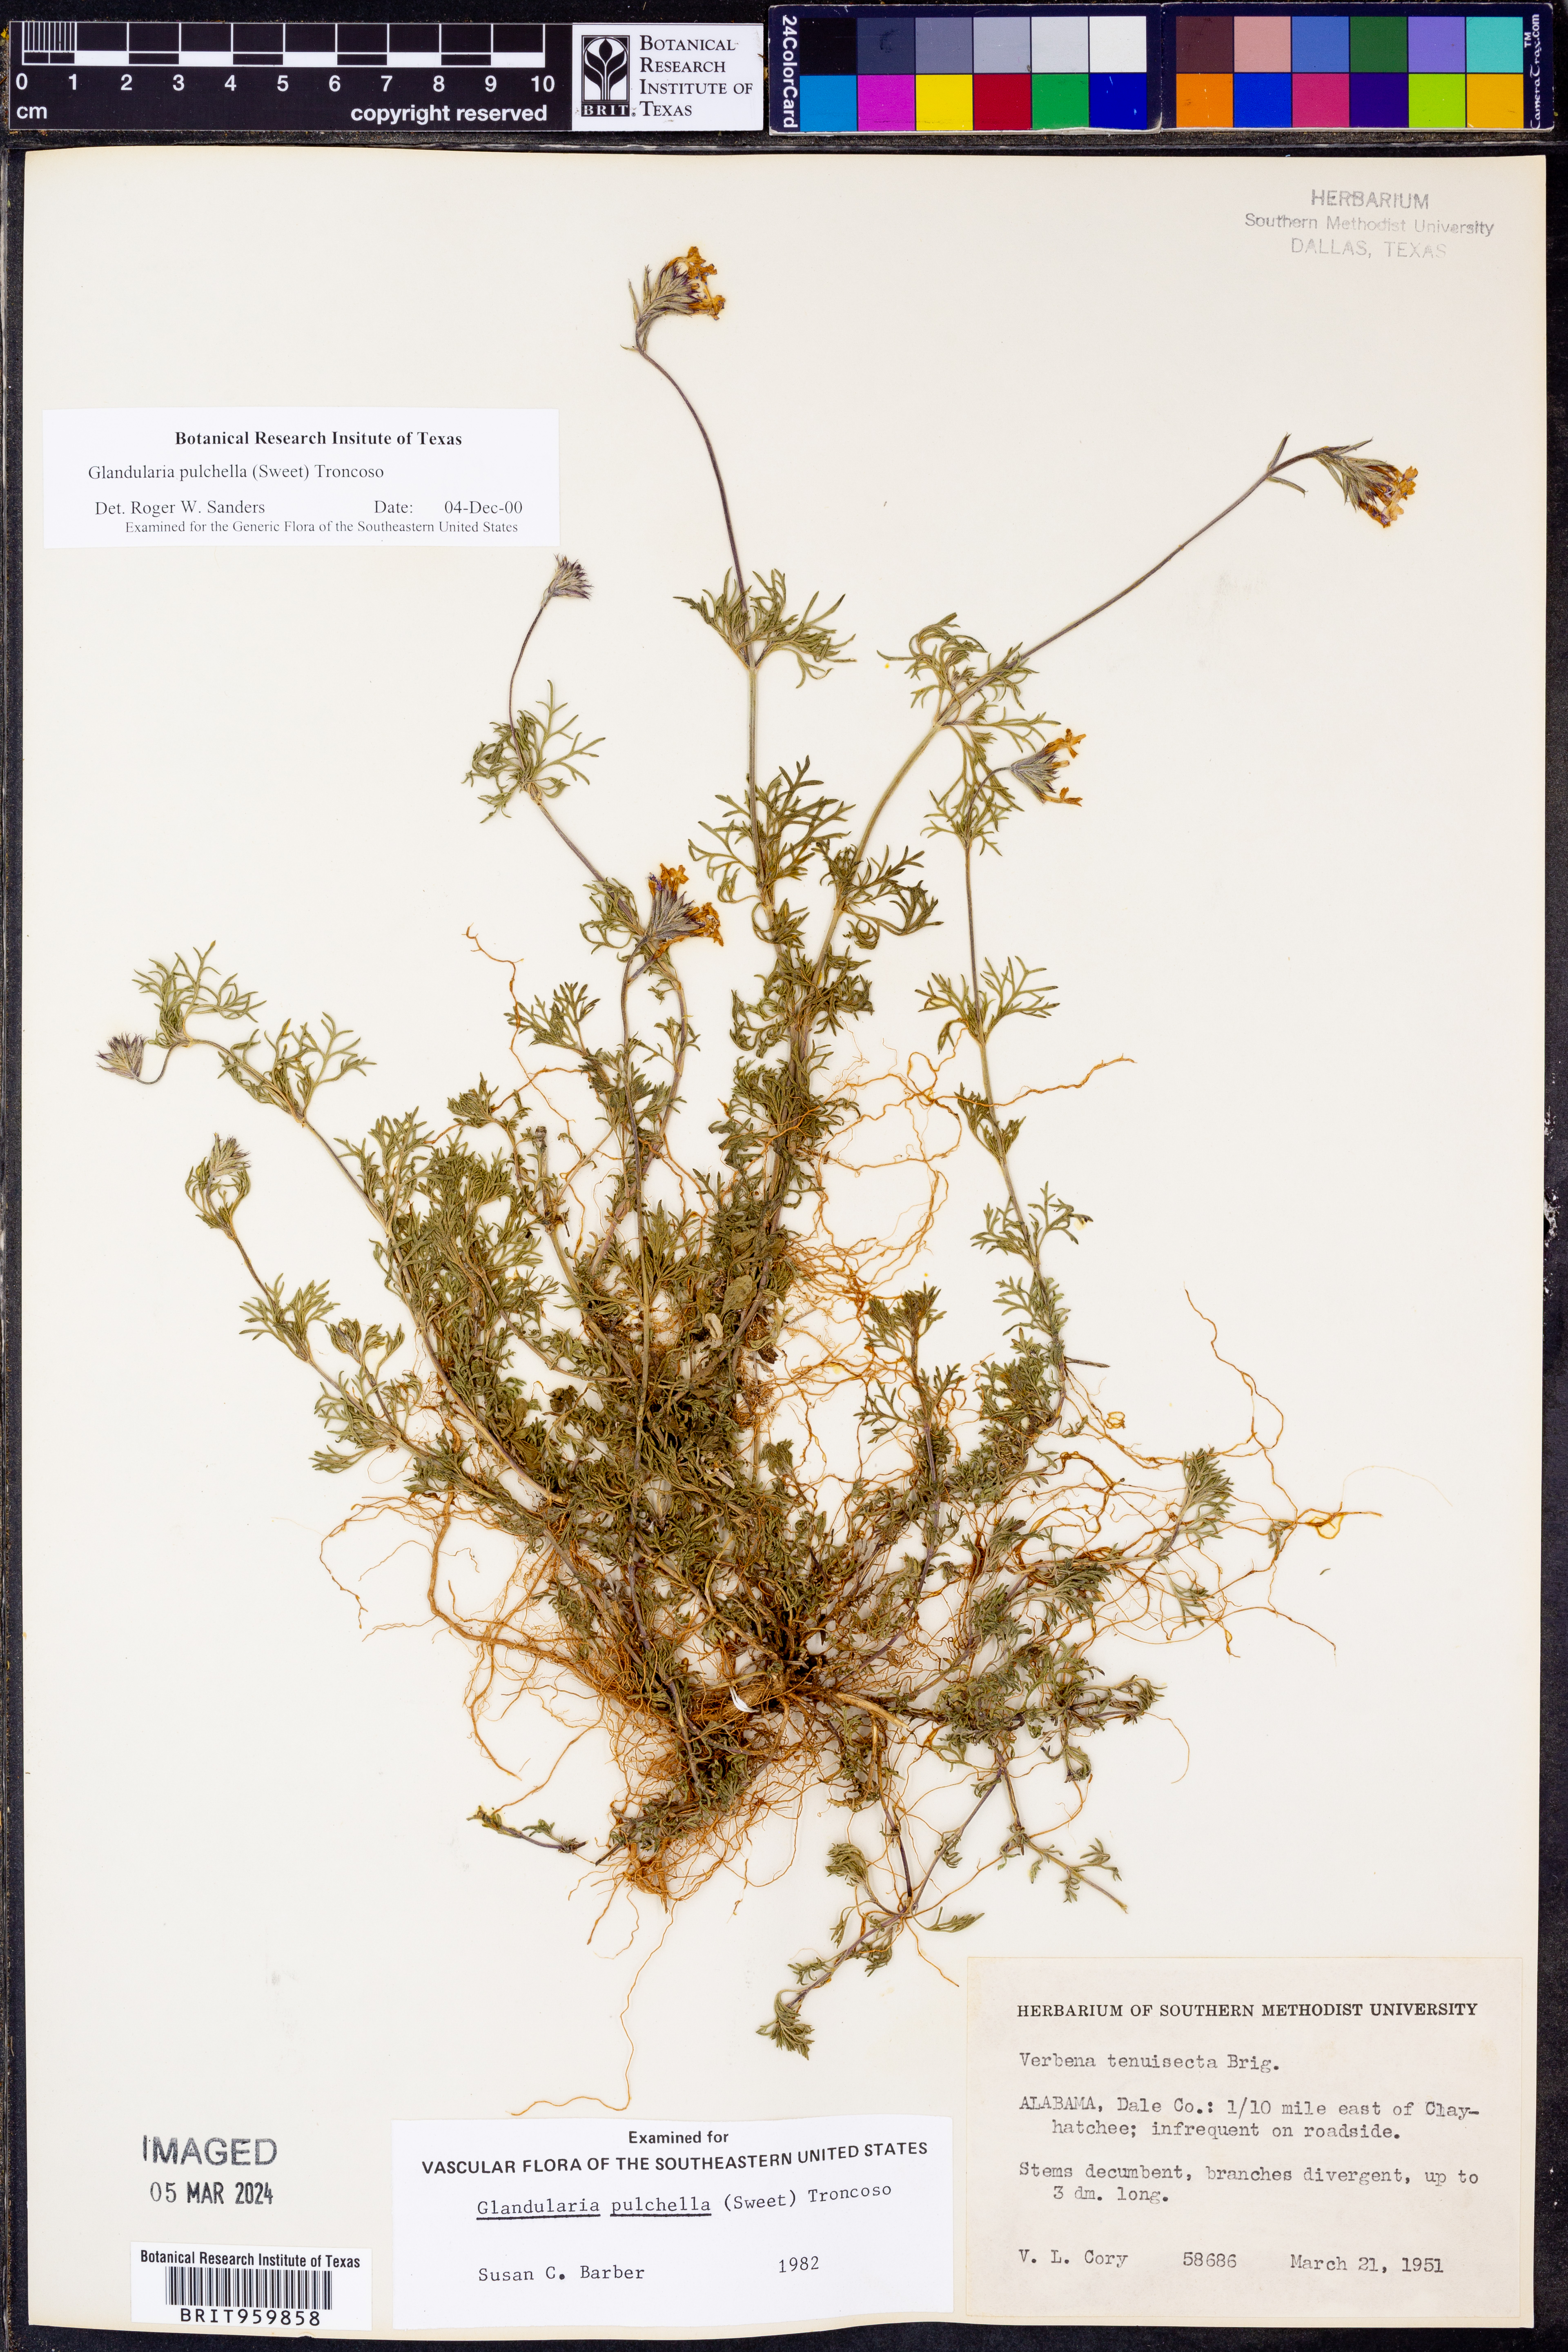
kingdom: Plantae
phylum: Tracheophyta
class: Magnoliopsida
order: Lamiales
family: Verbenaceae
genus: Verbena
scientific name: Verbena tenera
